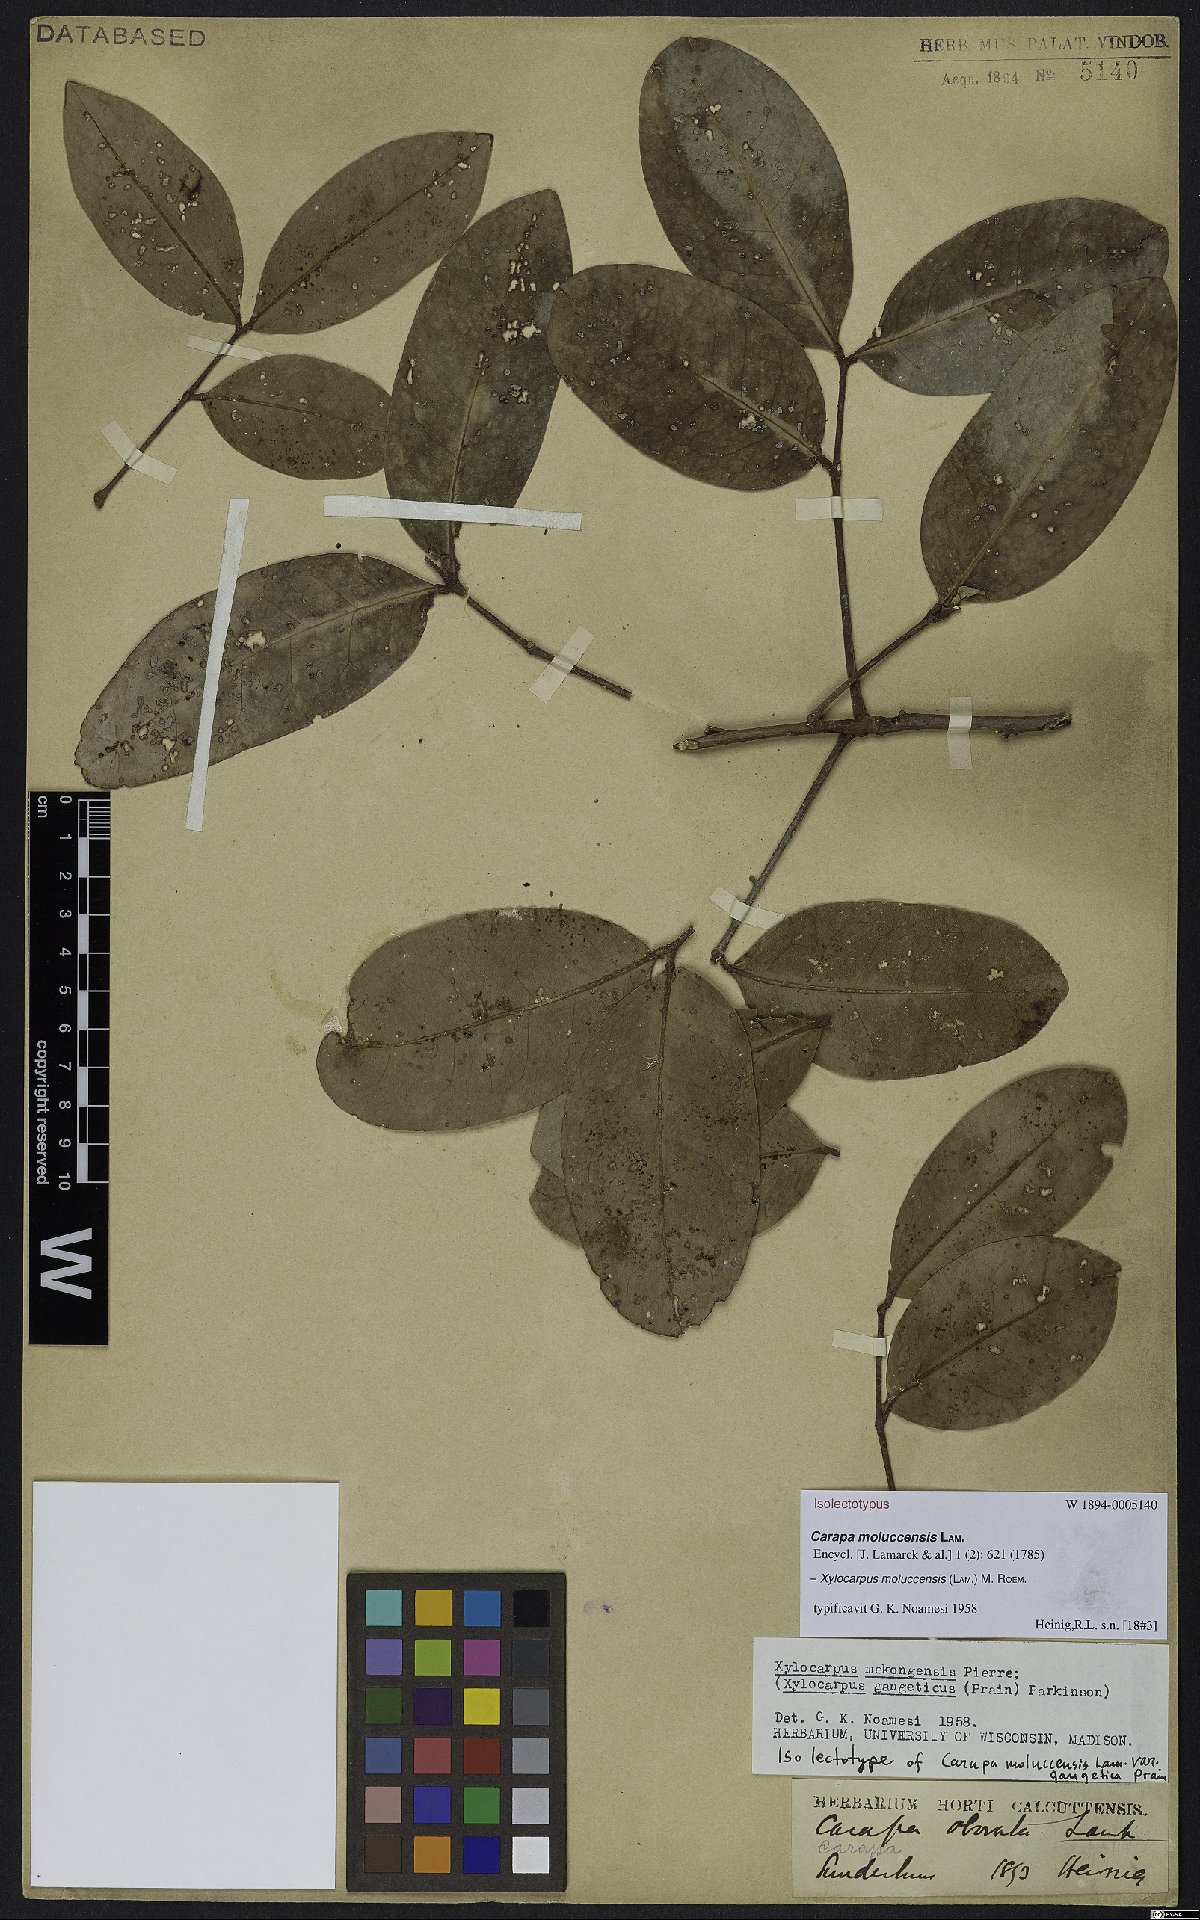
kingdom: Plantae
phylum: Tracheophyta
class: Magnoliopsida
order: Sapindales
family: Meliaceae
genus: Xylocarpus
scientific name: Xylocarpus moluccensis
